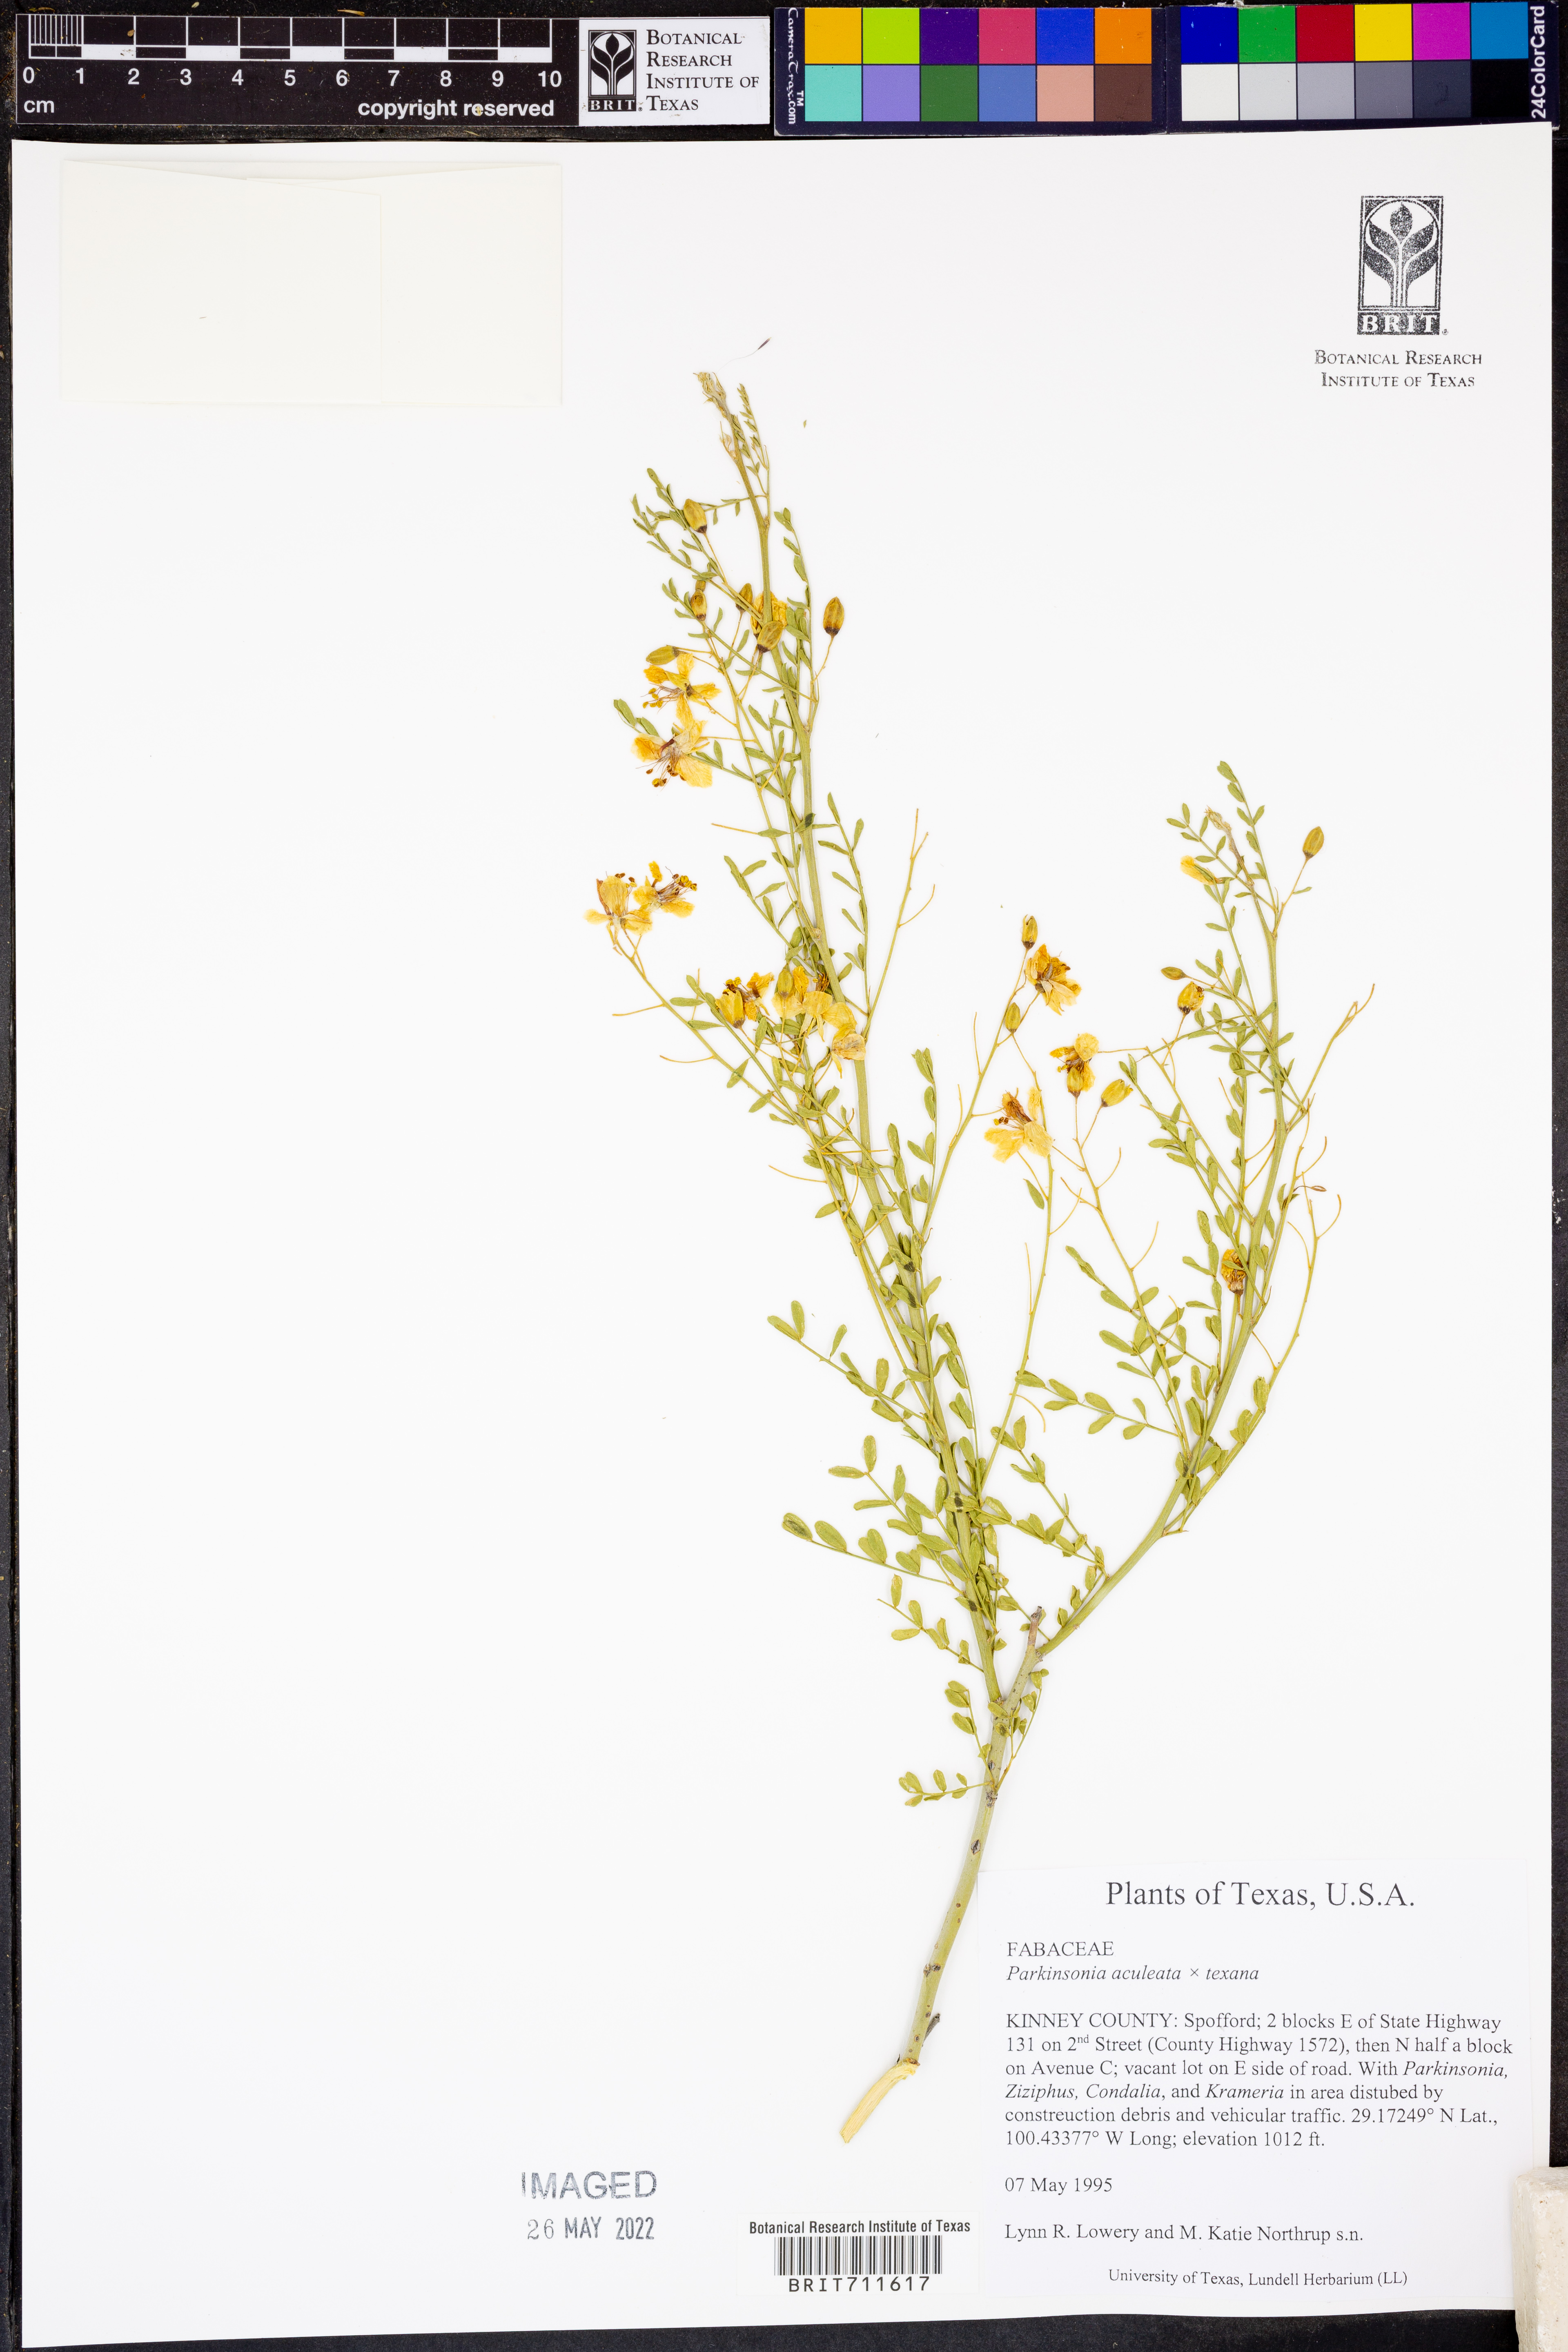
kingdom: Plantae
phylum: Tracheophyta
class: Magnoliopsida
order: Fabales
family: Fabaceae
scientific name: Fabaceae
